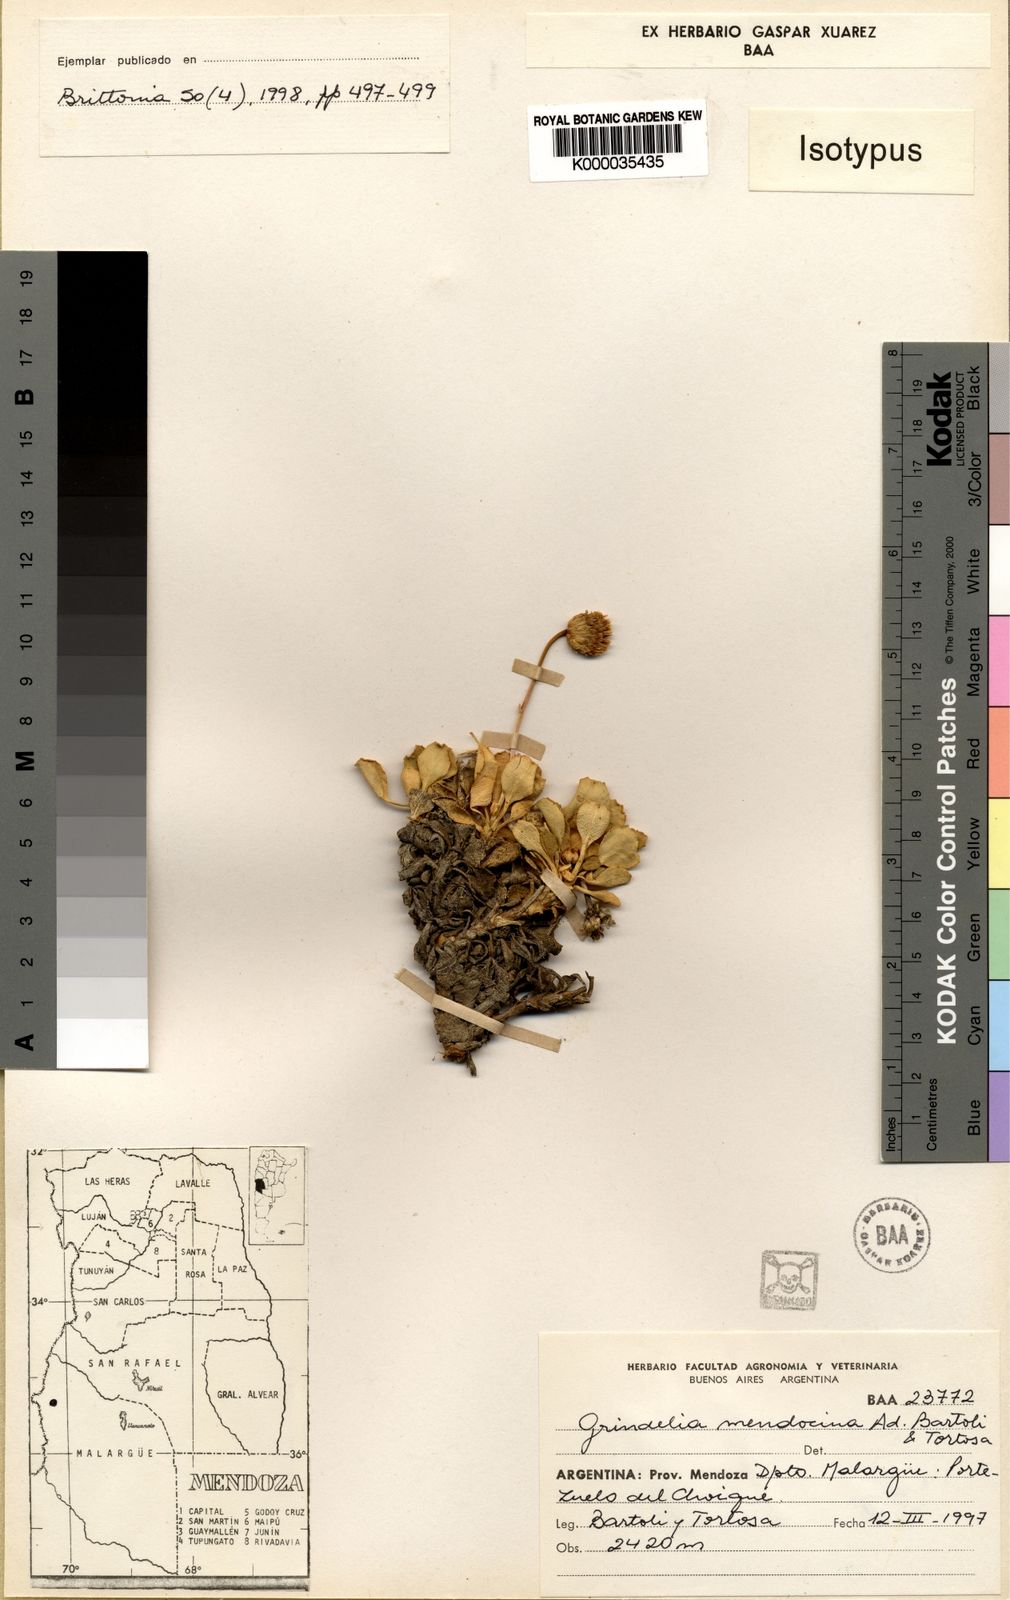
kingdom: Plantae
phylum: Tracheophyta
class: Magnoliopsida
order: Asterales
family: Asteraceae
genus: Grindelia
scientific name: Grindelia mendocina
